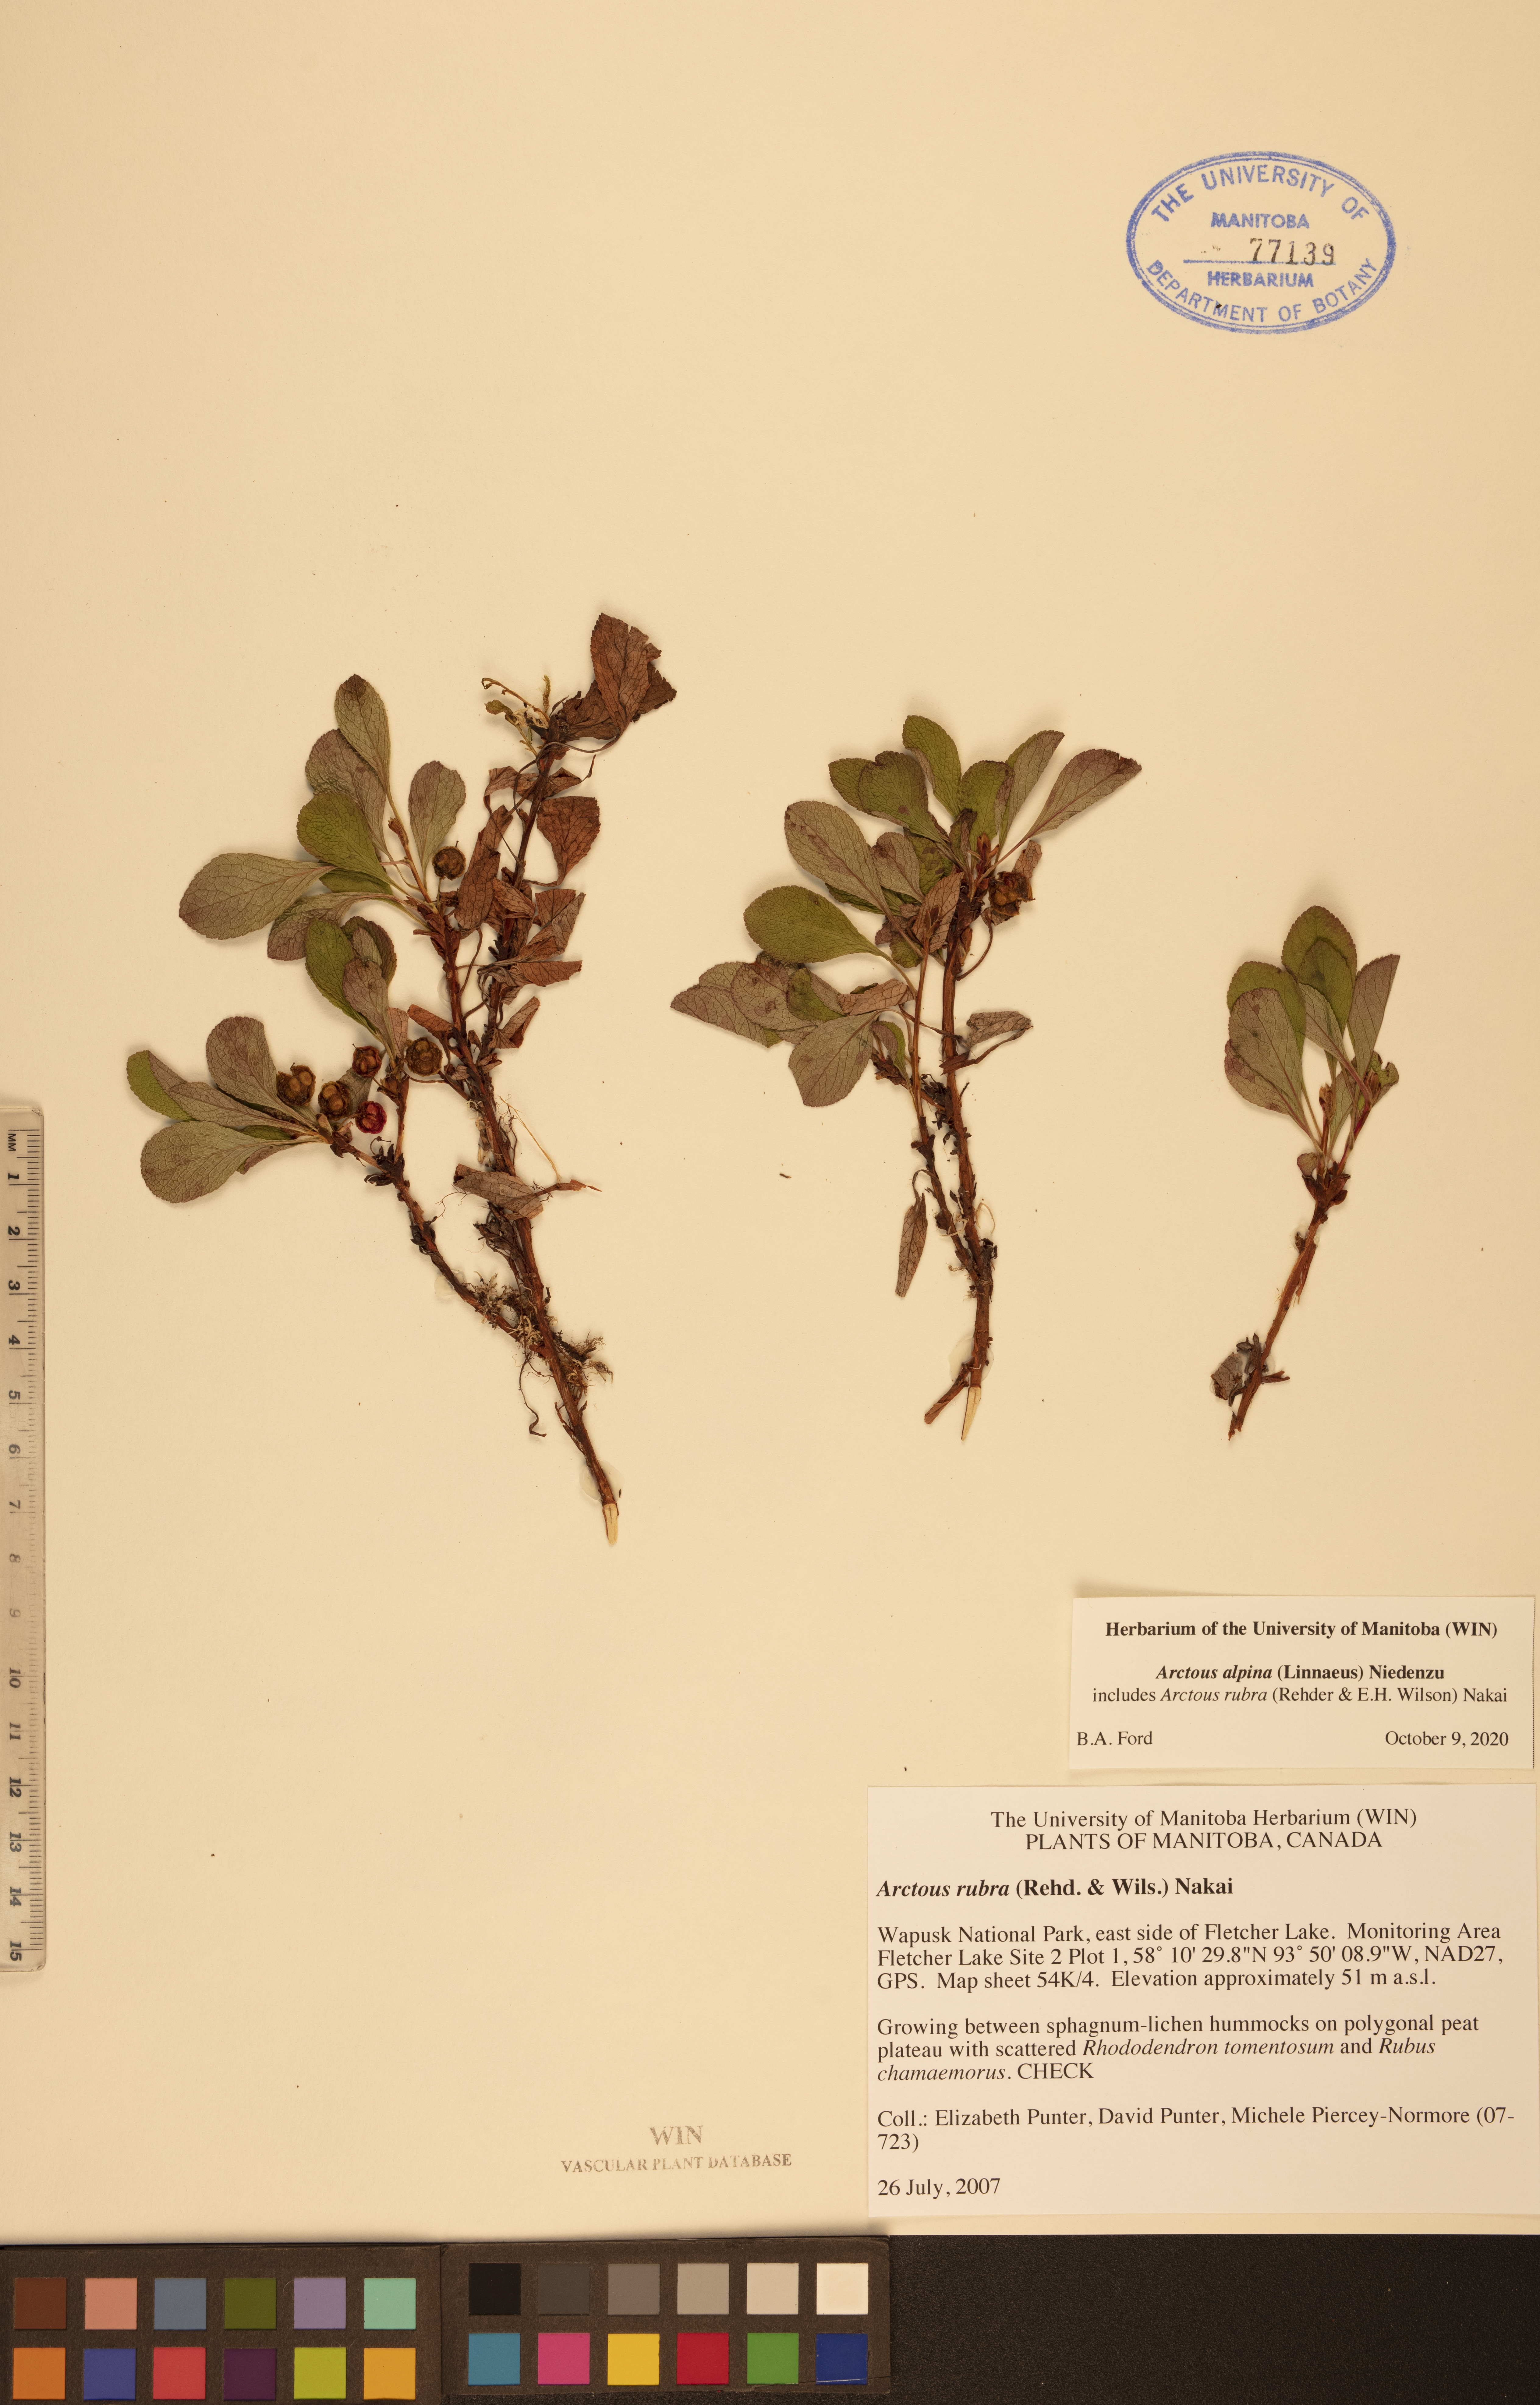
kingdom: Plantae
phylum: Tracheophyta
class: Magnoliopsida
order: Ericales
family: Ericaceae
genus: Arctostaphylos
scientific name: Arctostaphylos alpinus
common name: Alpine bearberry
